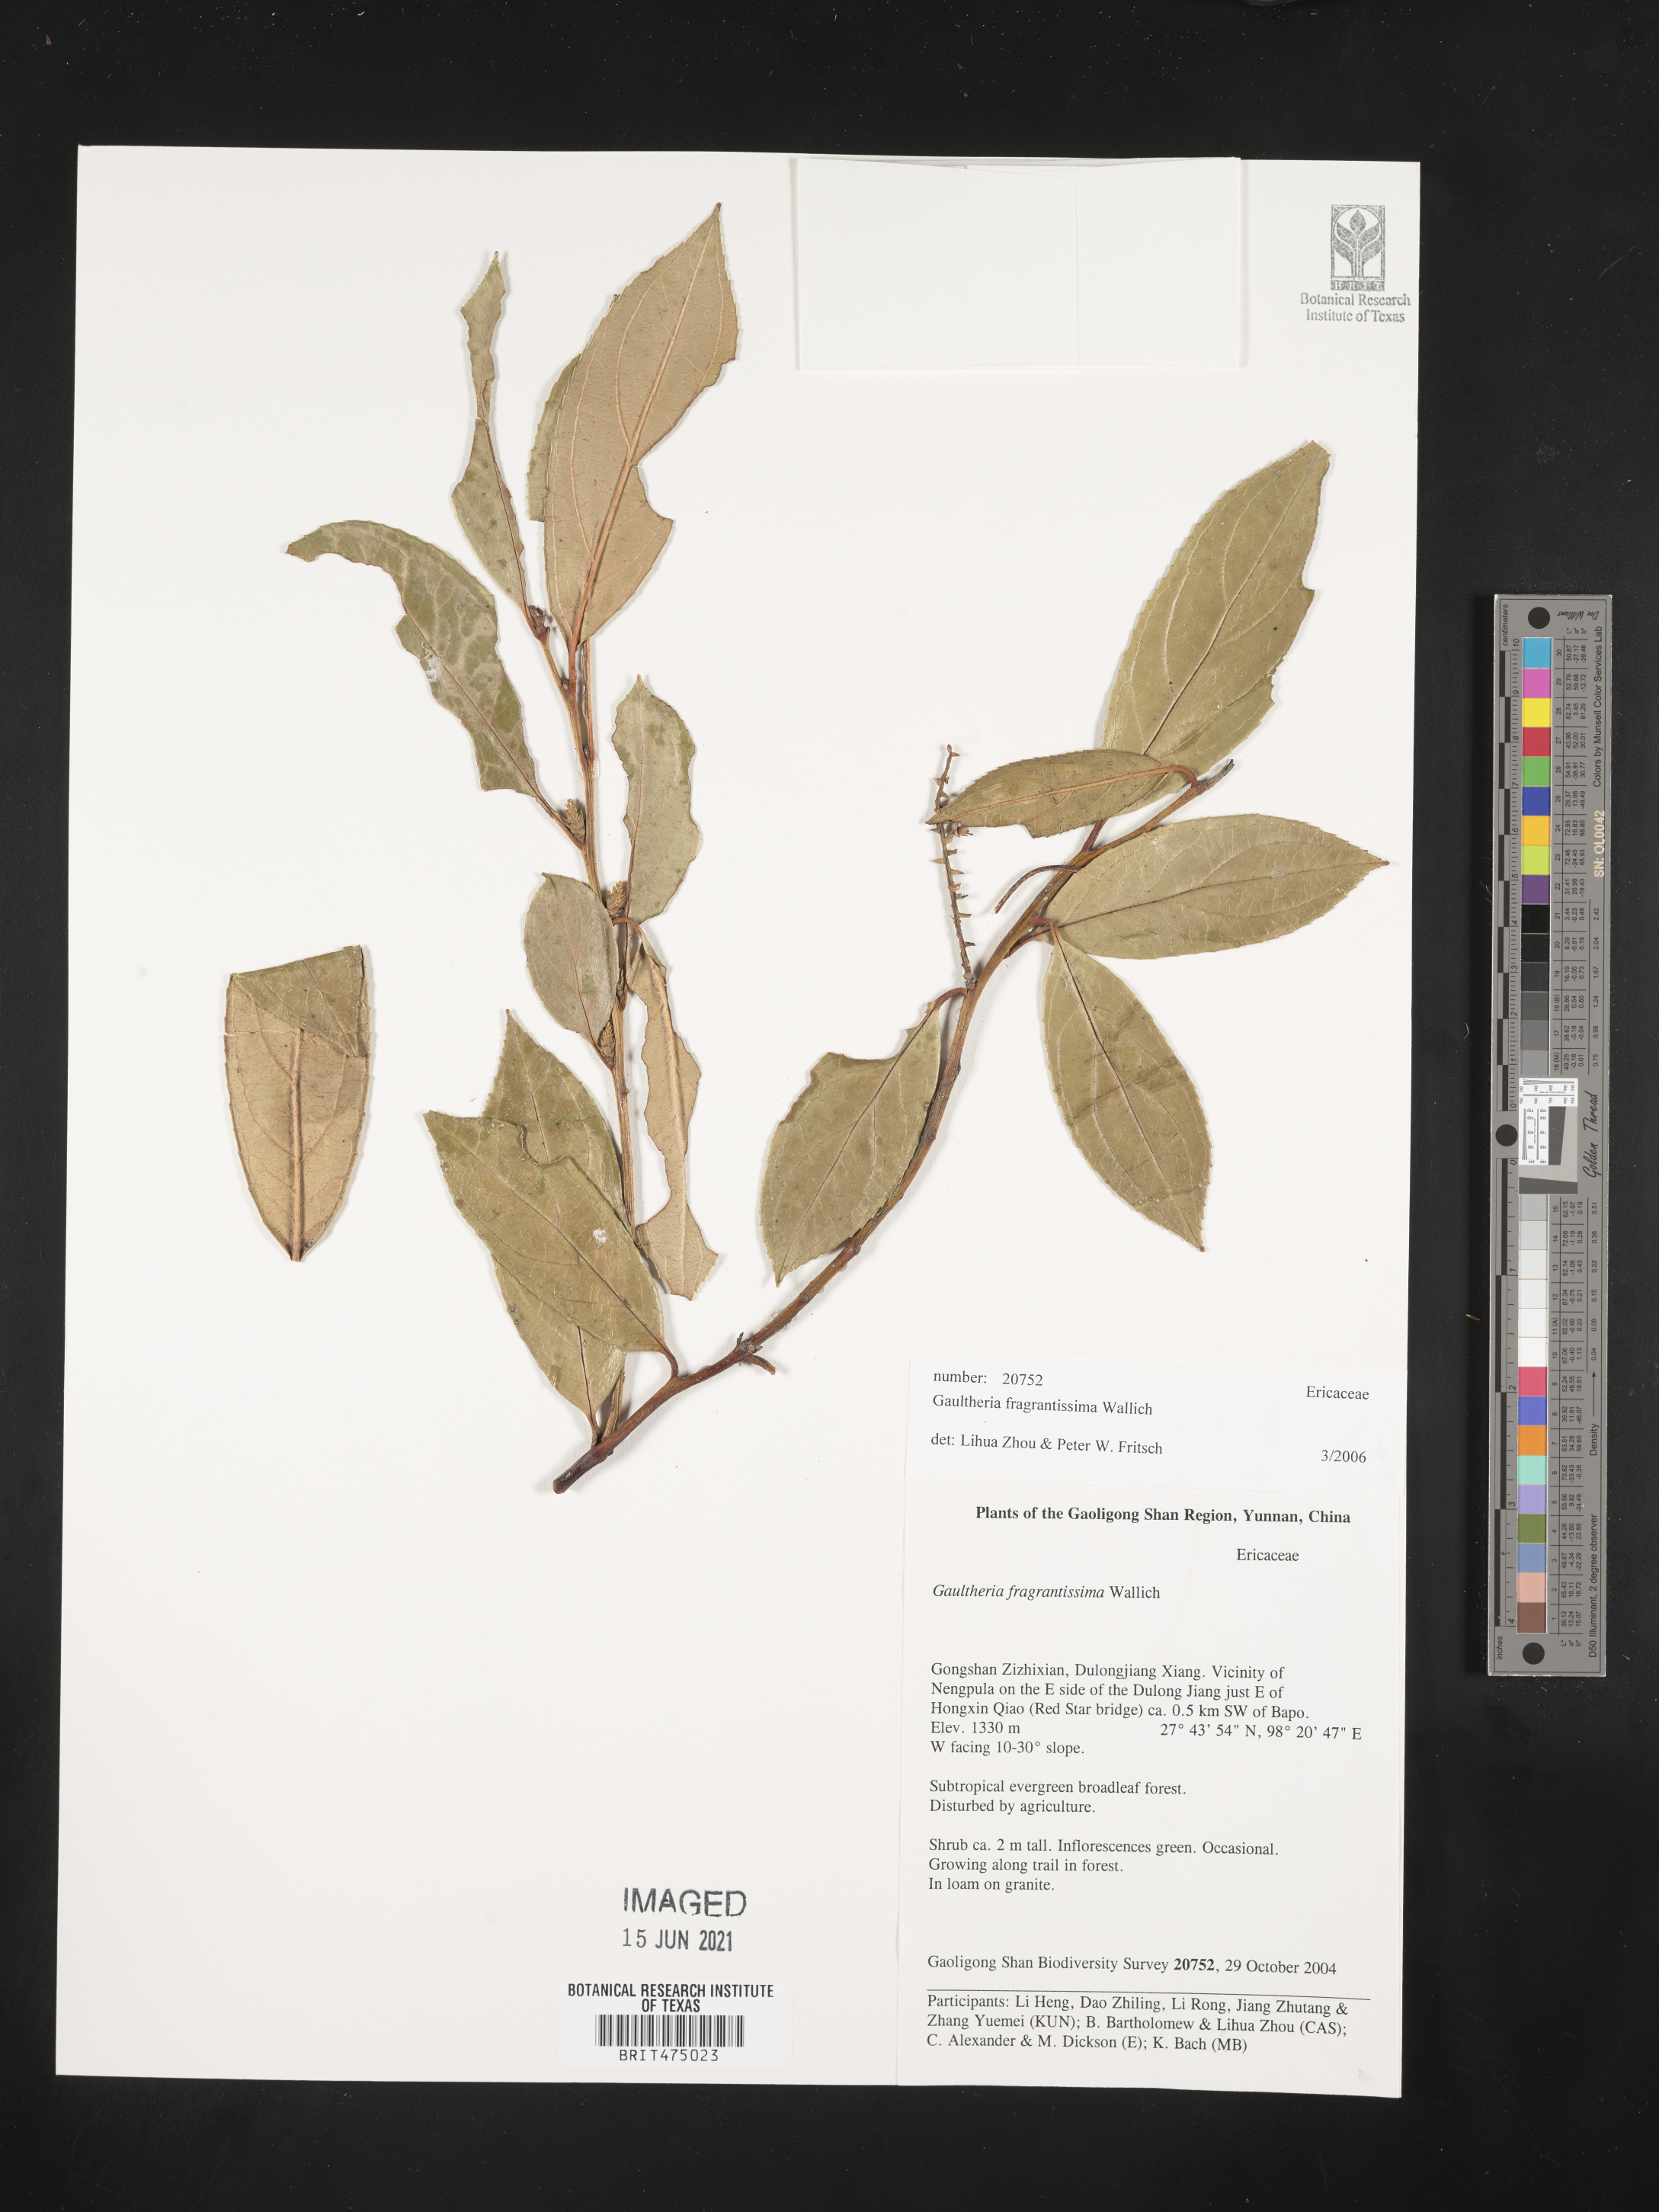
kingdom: Plantae
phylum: Tracheophyta
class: Magnoliopsida
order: Ericales
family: Ericaceae
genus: Gaultheria
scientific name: Gaultheria fragrantissima
